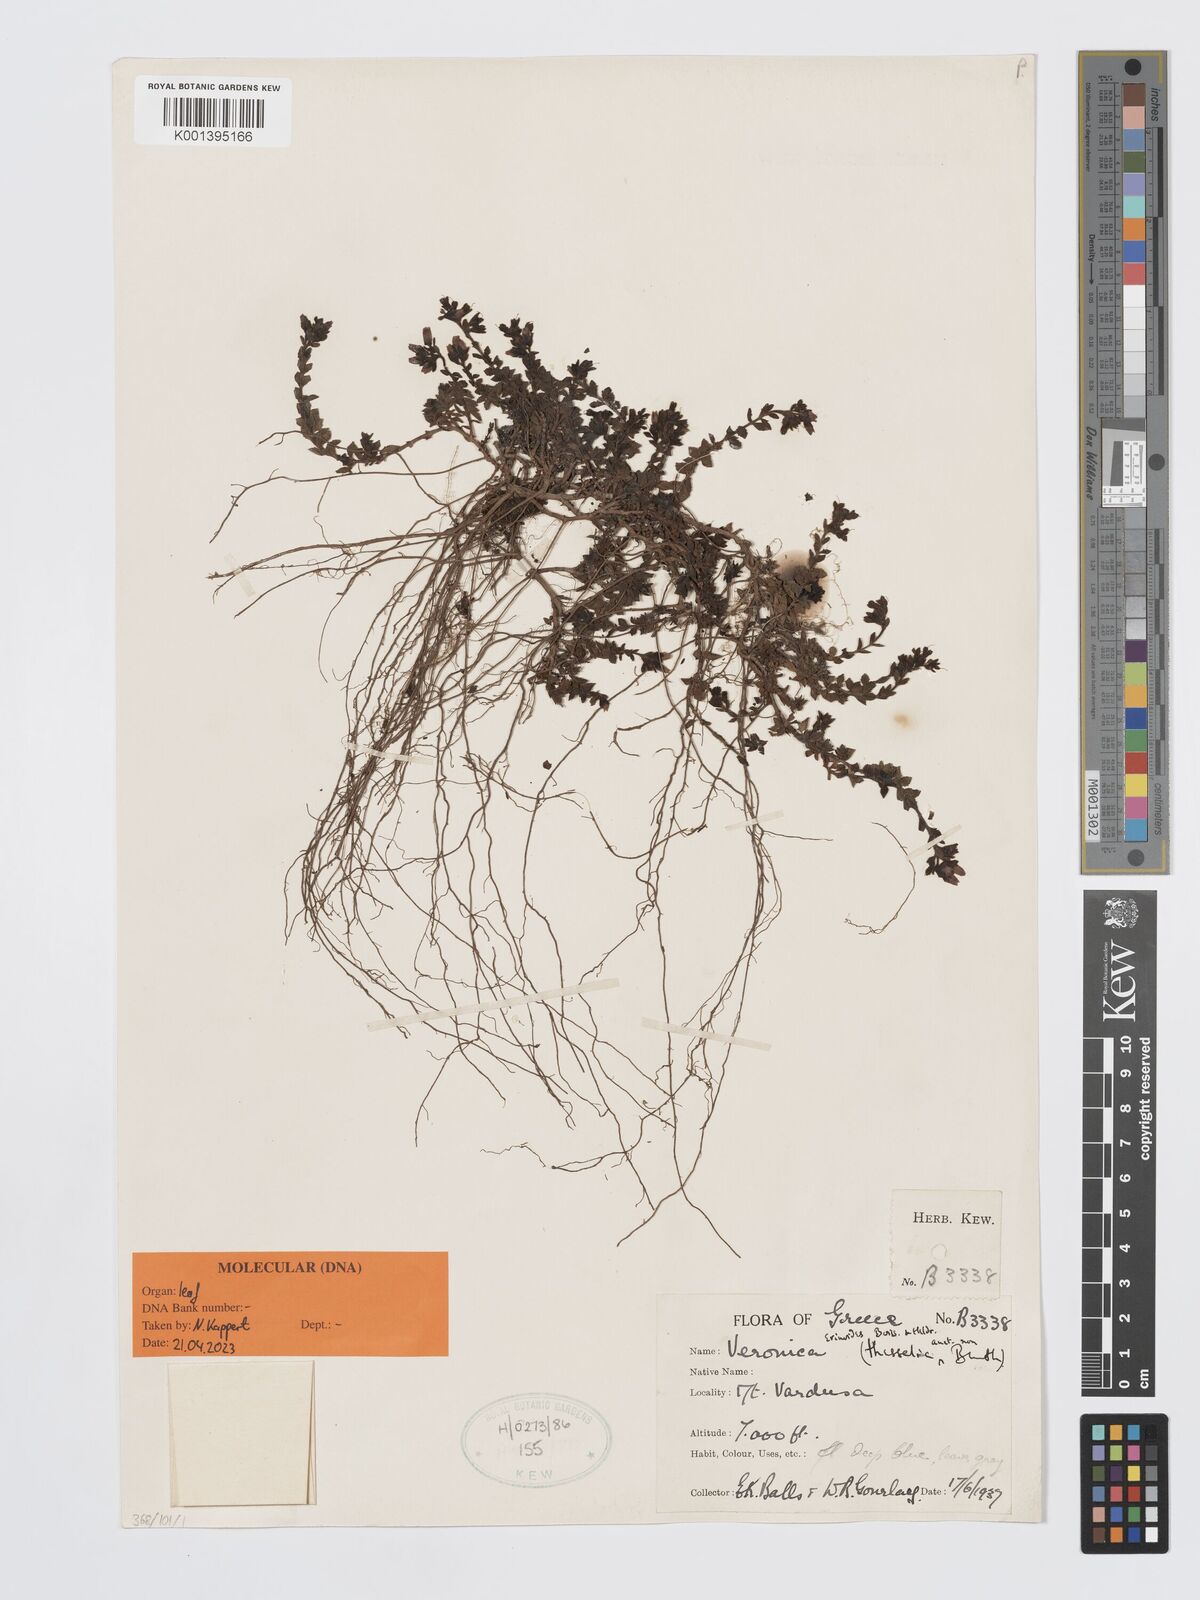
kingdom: Plantae
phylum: Tracheophyta
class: Magnoliopsida
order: Lamiales
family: Plantaginaceae
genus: Veronica
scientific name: Veronica erinoides
